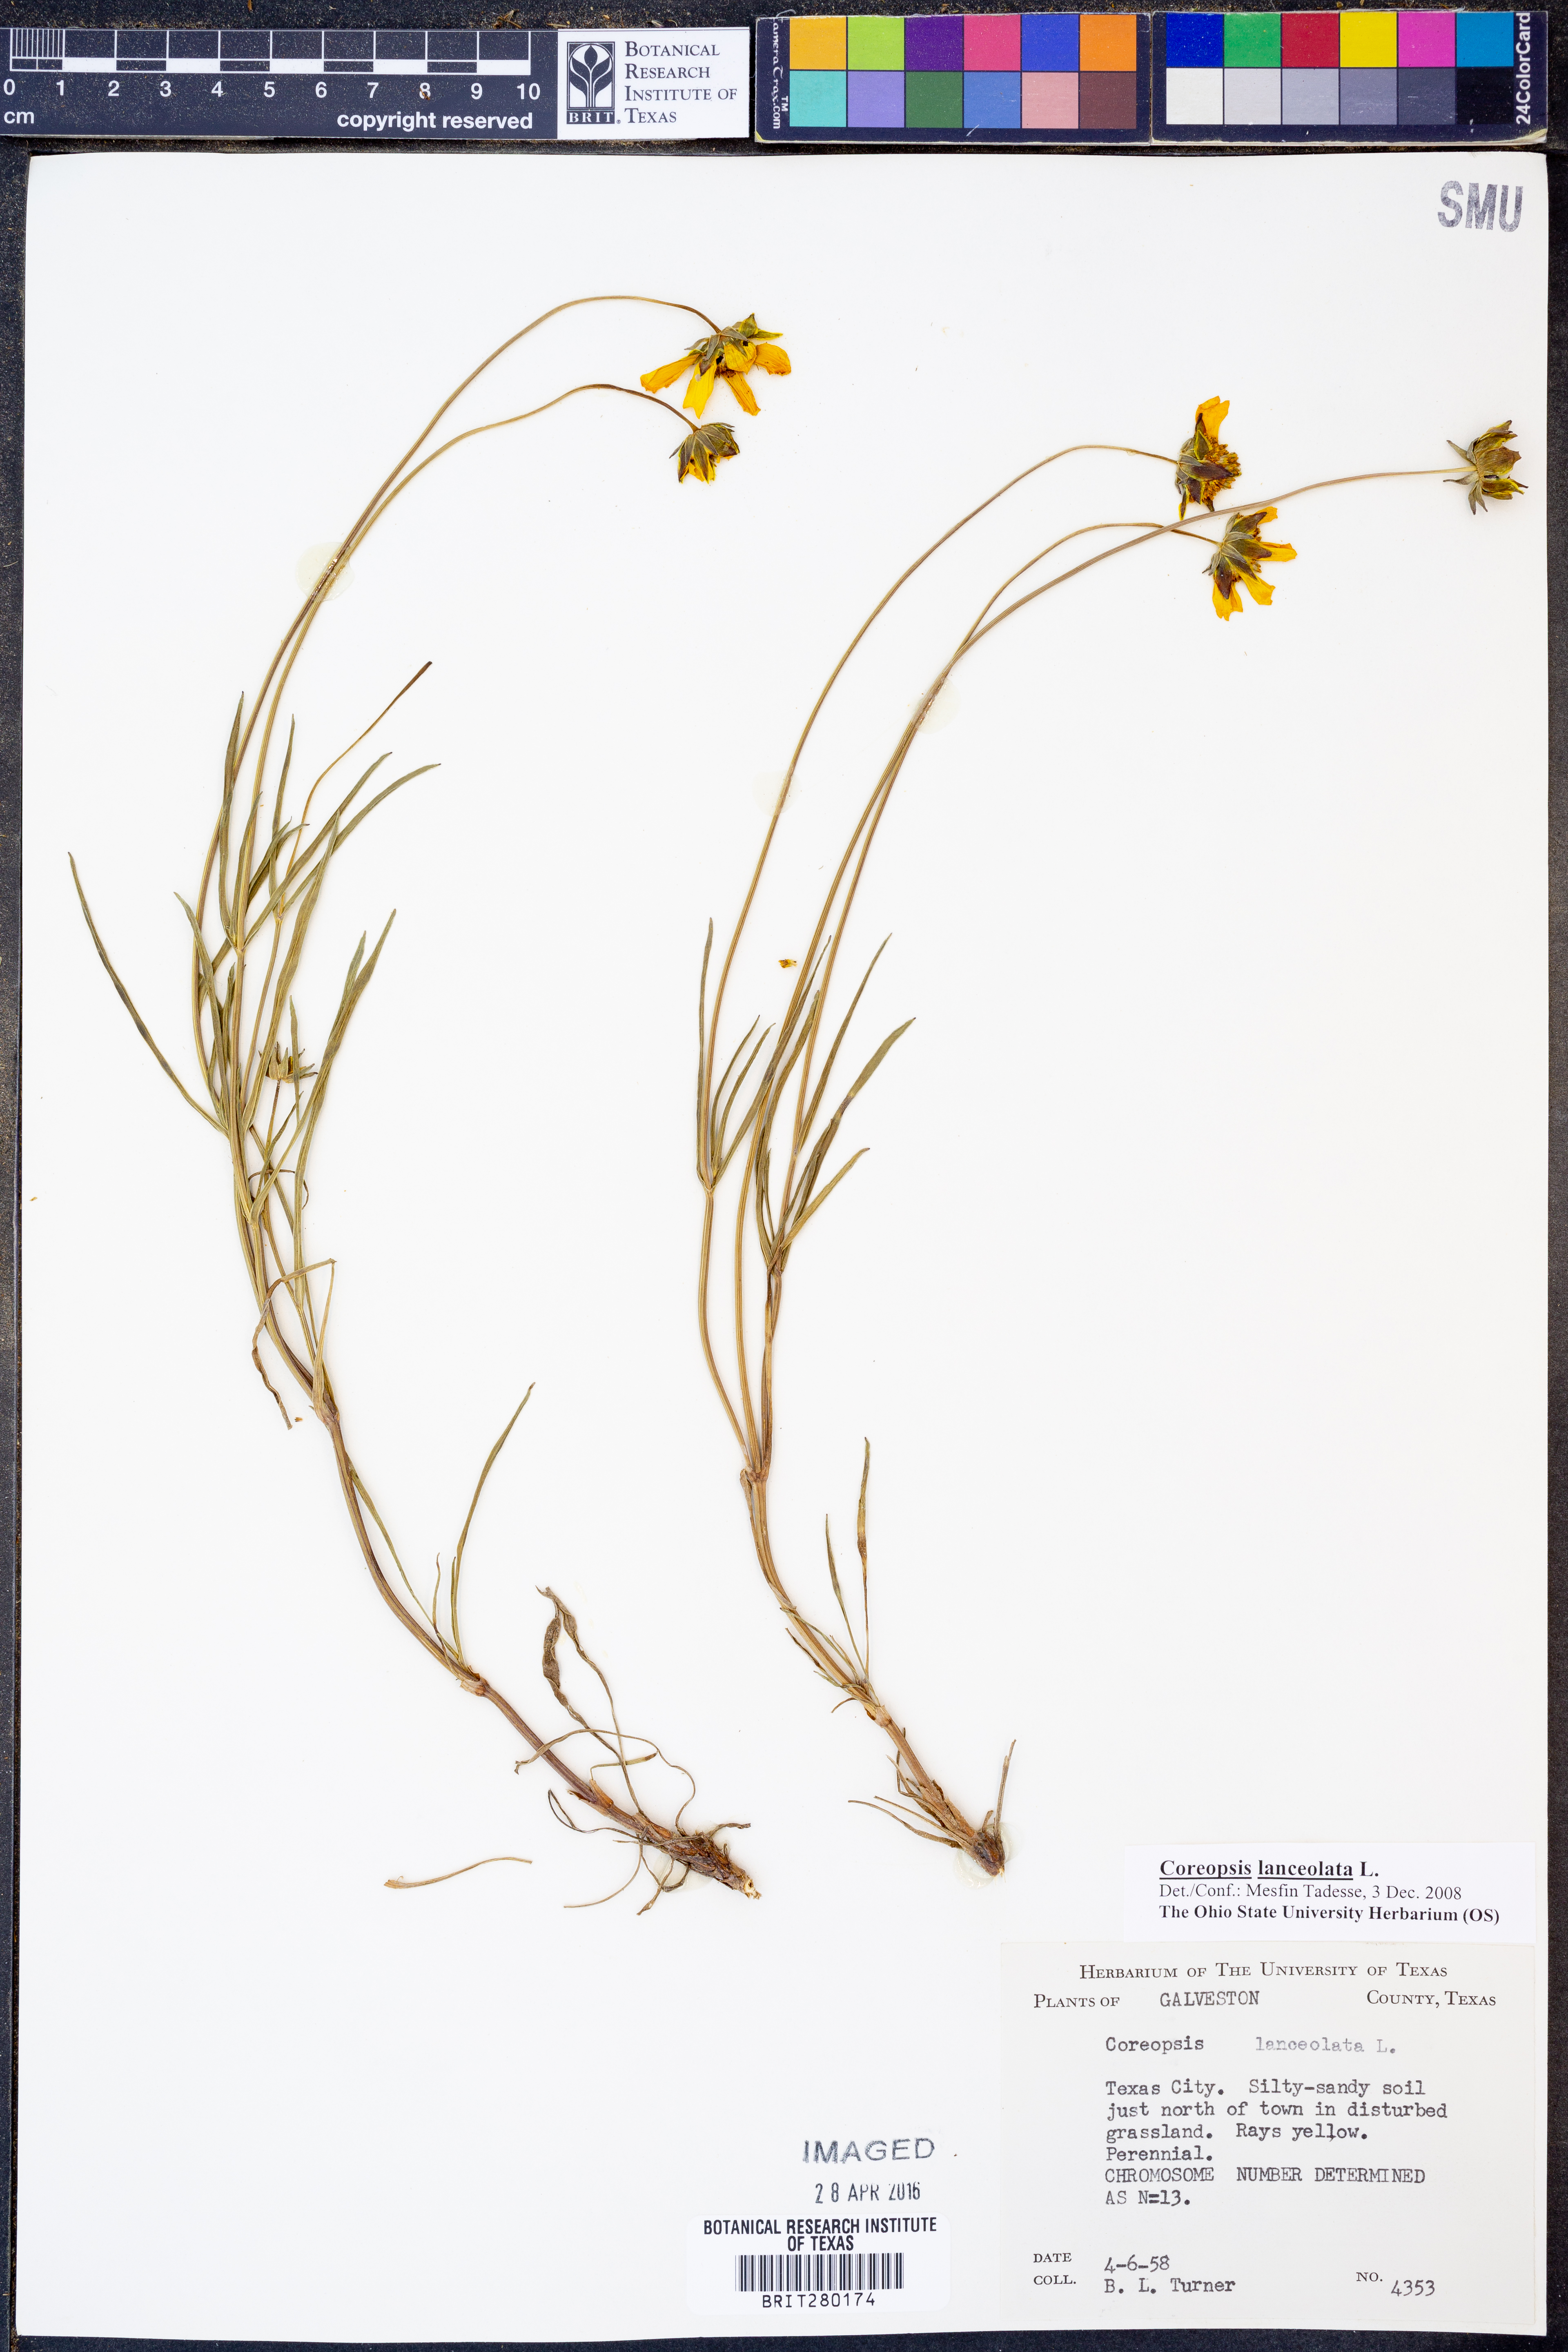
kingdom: Plantae
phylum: Tracheophyta
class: Magnoliopsida
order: Asterales
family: Asteraceae
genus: Coreopsis
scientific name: Coreopsis lanceolata
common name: Garden coreopsis
